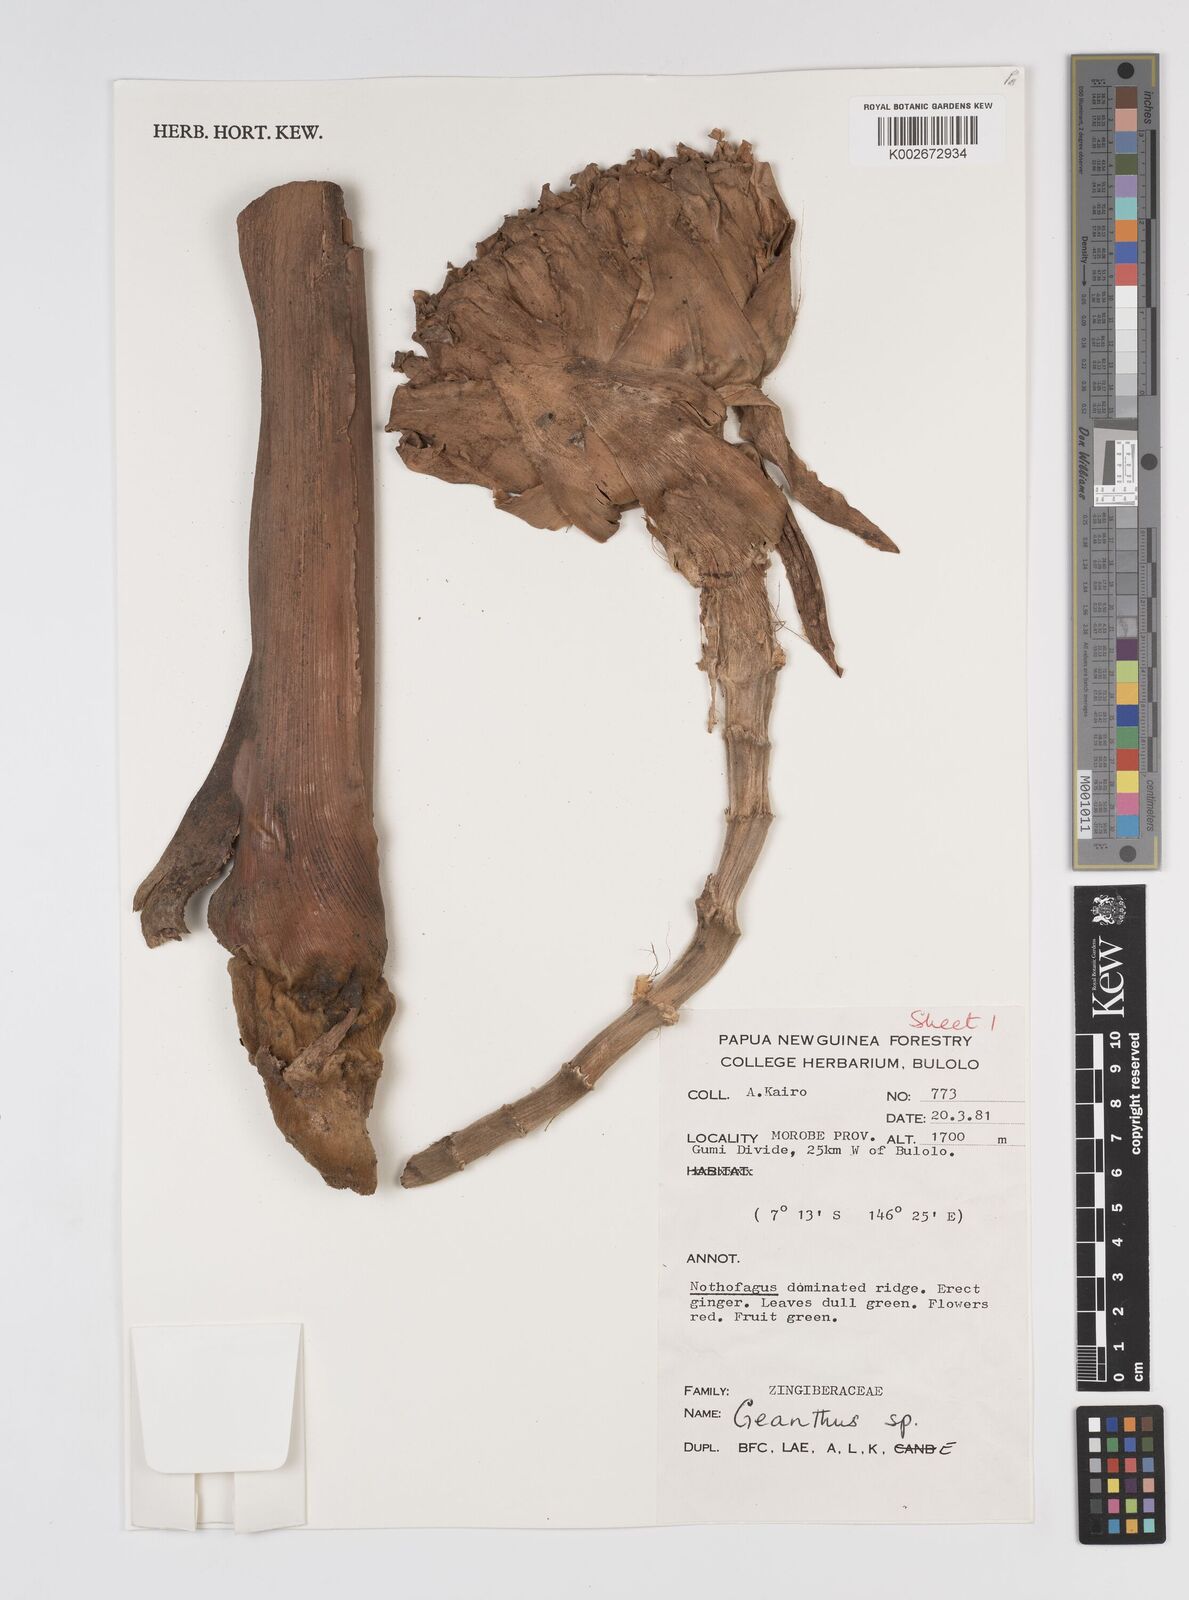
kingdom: Plantae
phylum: Tracheophyta
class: Liliopsida
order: Zingiberales
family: Zingiberaceae
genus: Etlingera
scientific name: Etlingera
